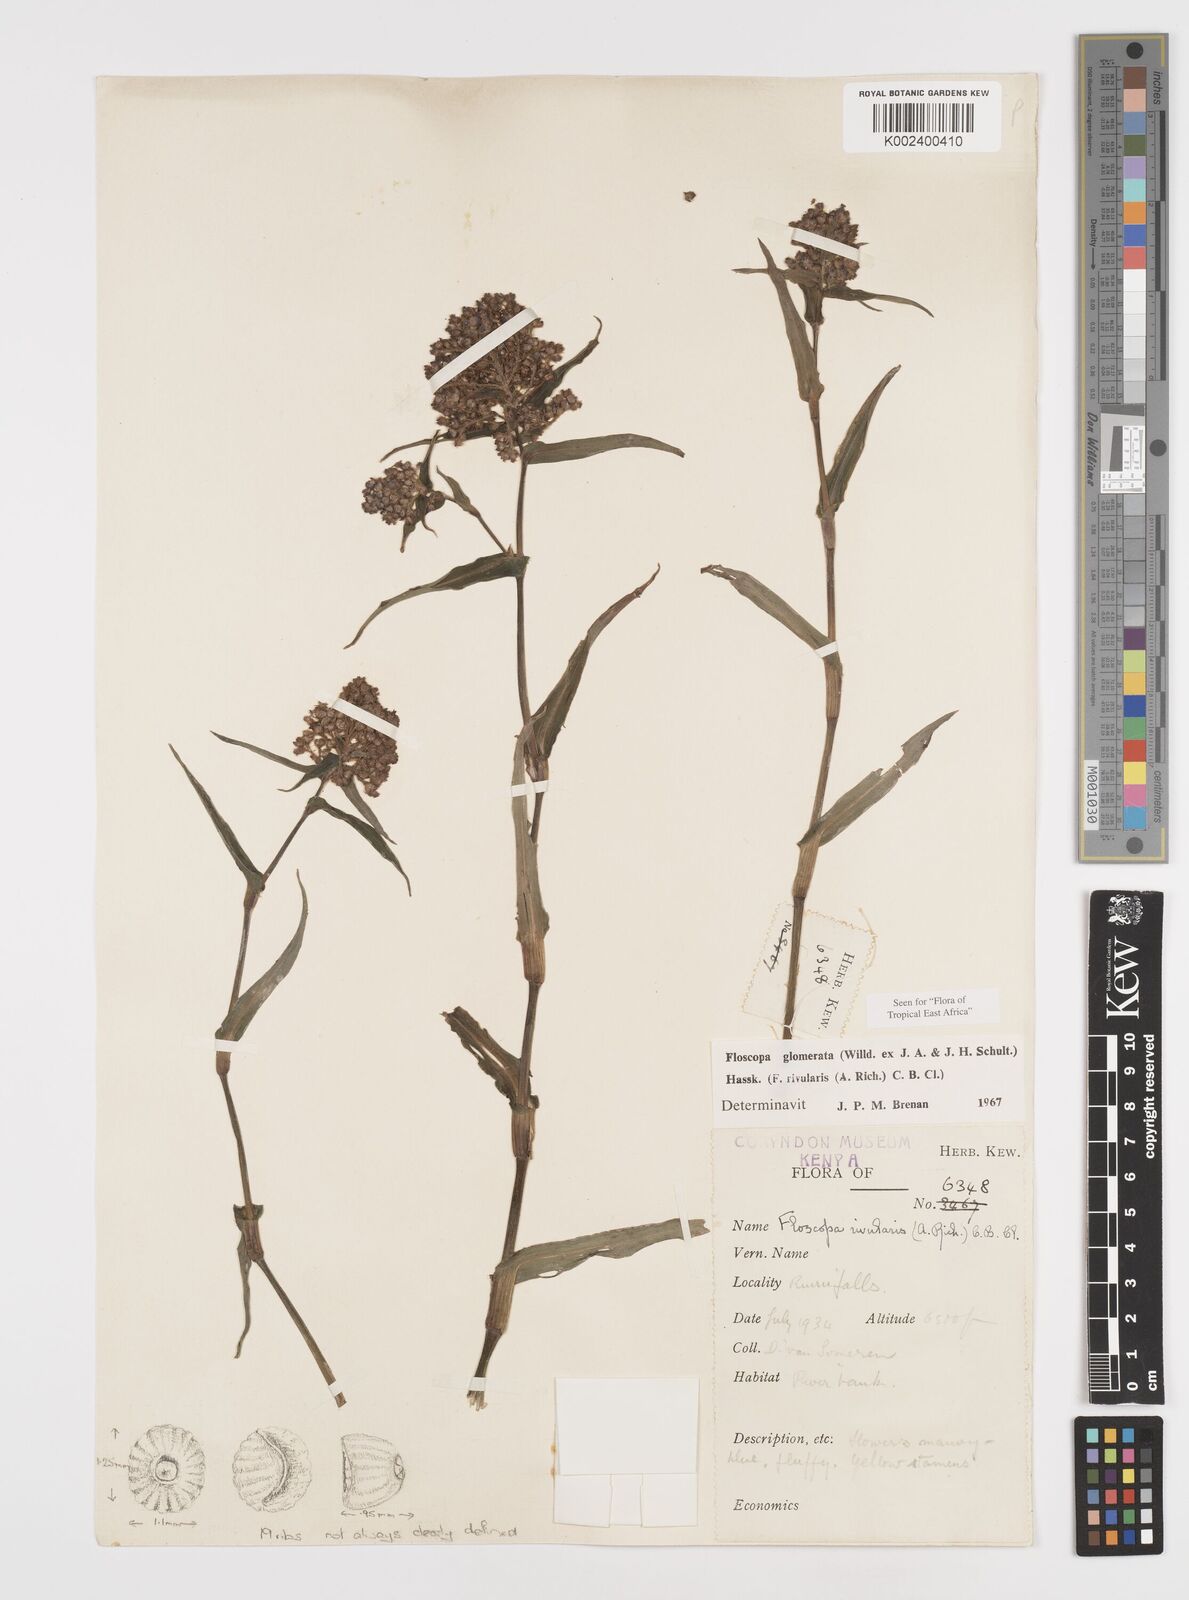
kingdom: Plantae
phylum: Tracheophyta
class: Liliopsida
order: Commelinales
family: Commelinaceae
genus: Floscopa
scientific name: Floscopa glomerata
